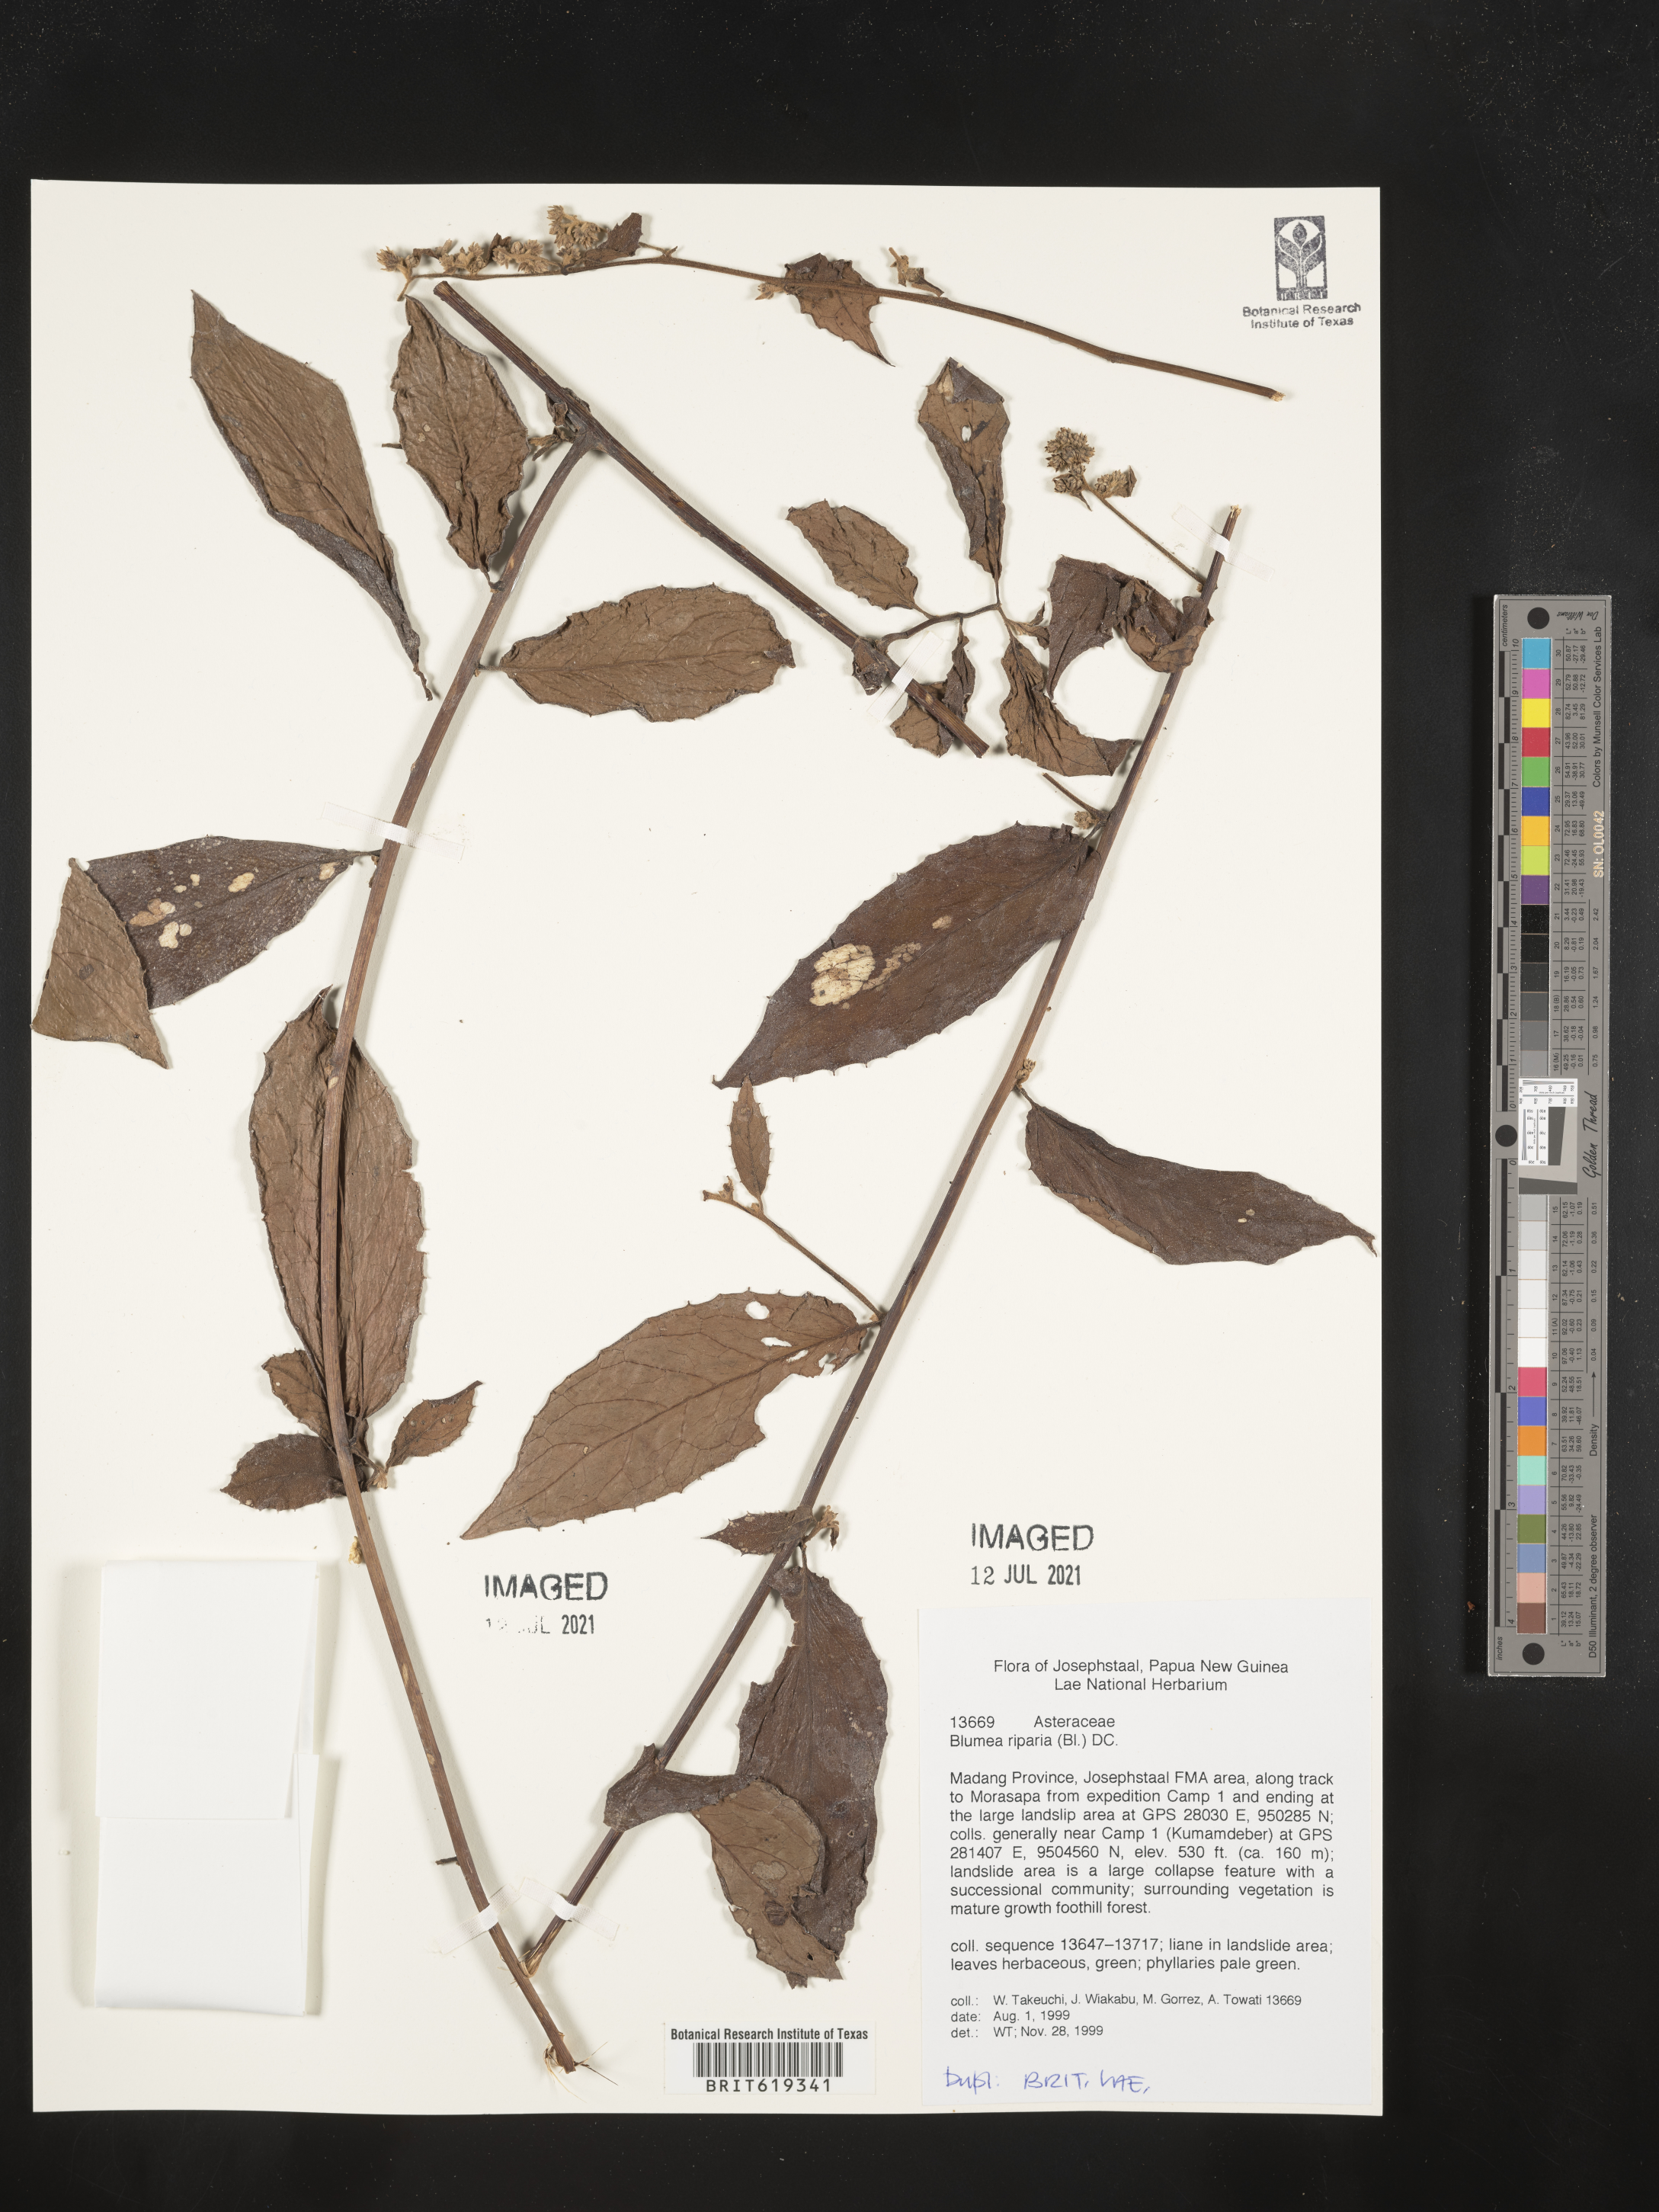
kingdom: Plantae
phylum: Tracheophyta
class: Magnoliopsida
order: Asterales
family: Asteraceae
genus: Blumea
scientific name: Blumea riparia
